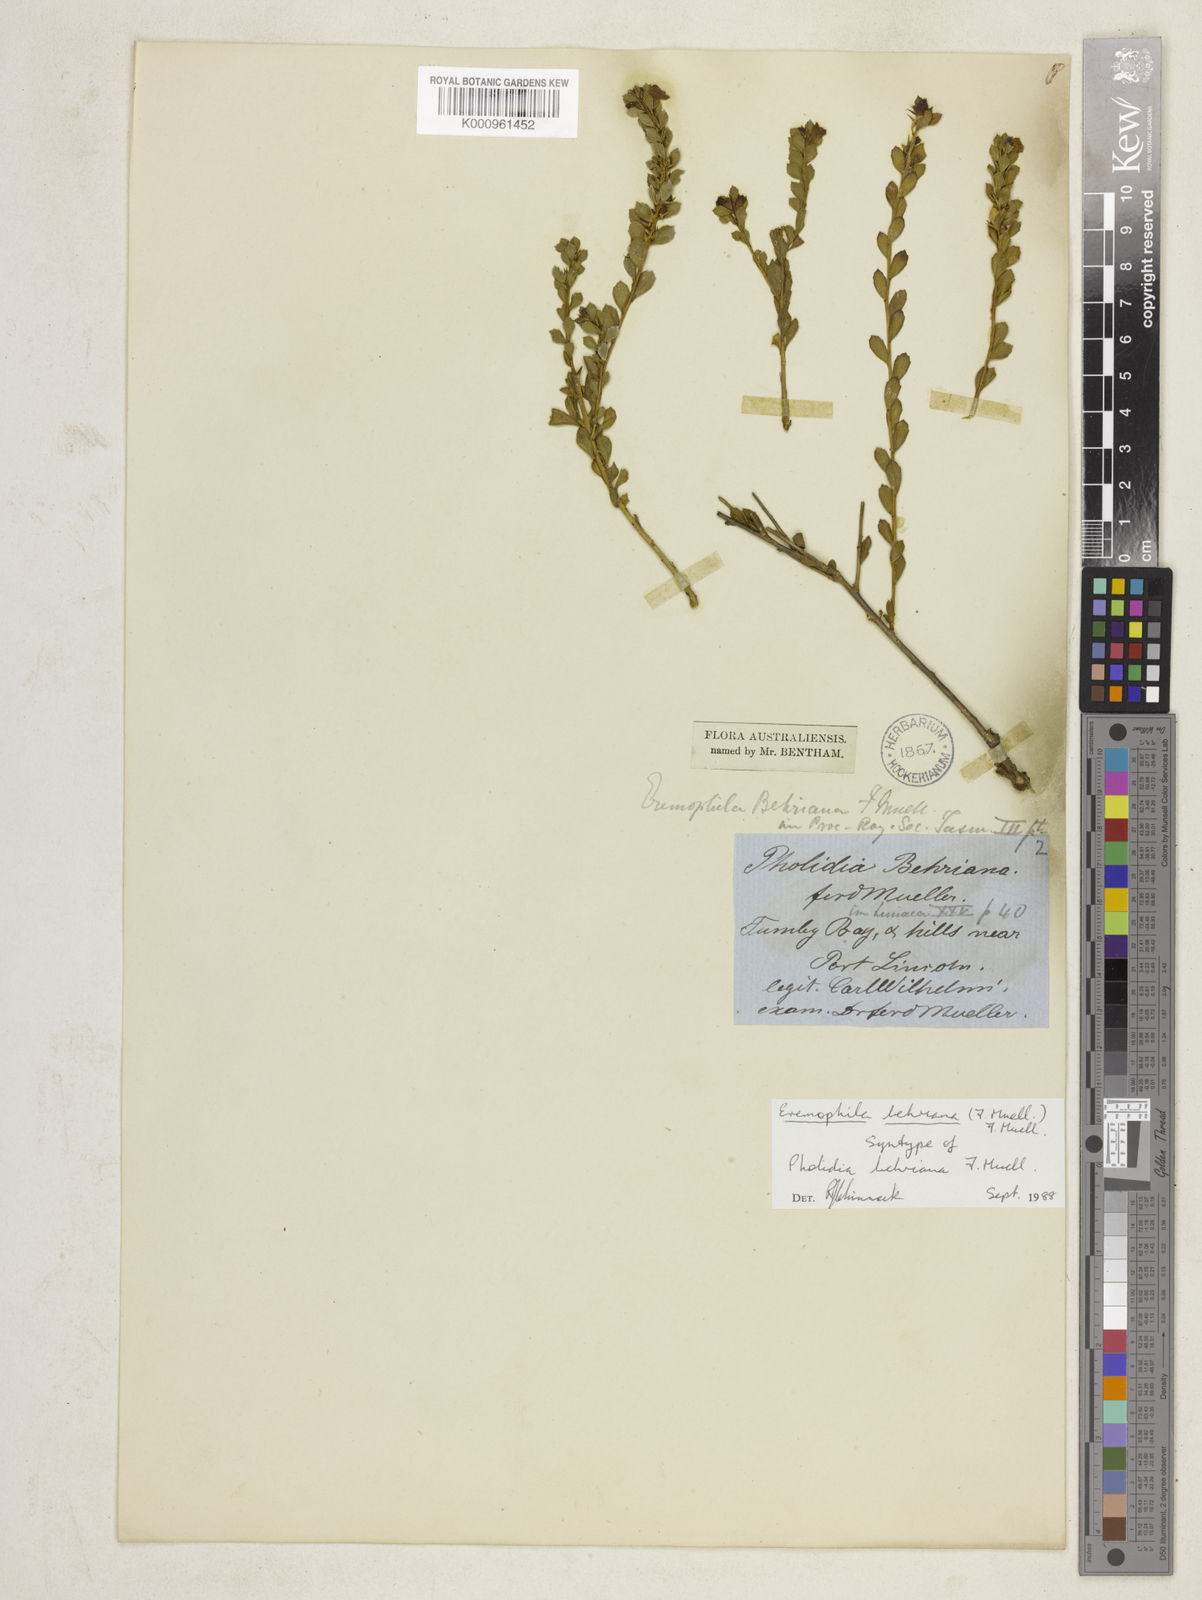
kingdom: Plantae
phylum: Tracheophyta
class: Magnoliopsida
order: Lamiales
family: Scrophulariaceae
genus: Eremophila
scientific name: Eremophila behriana
